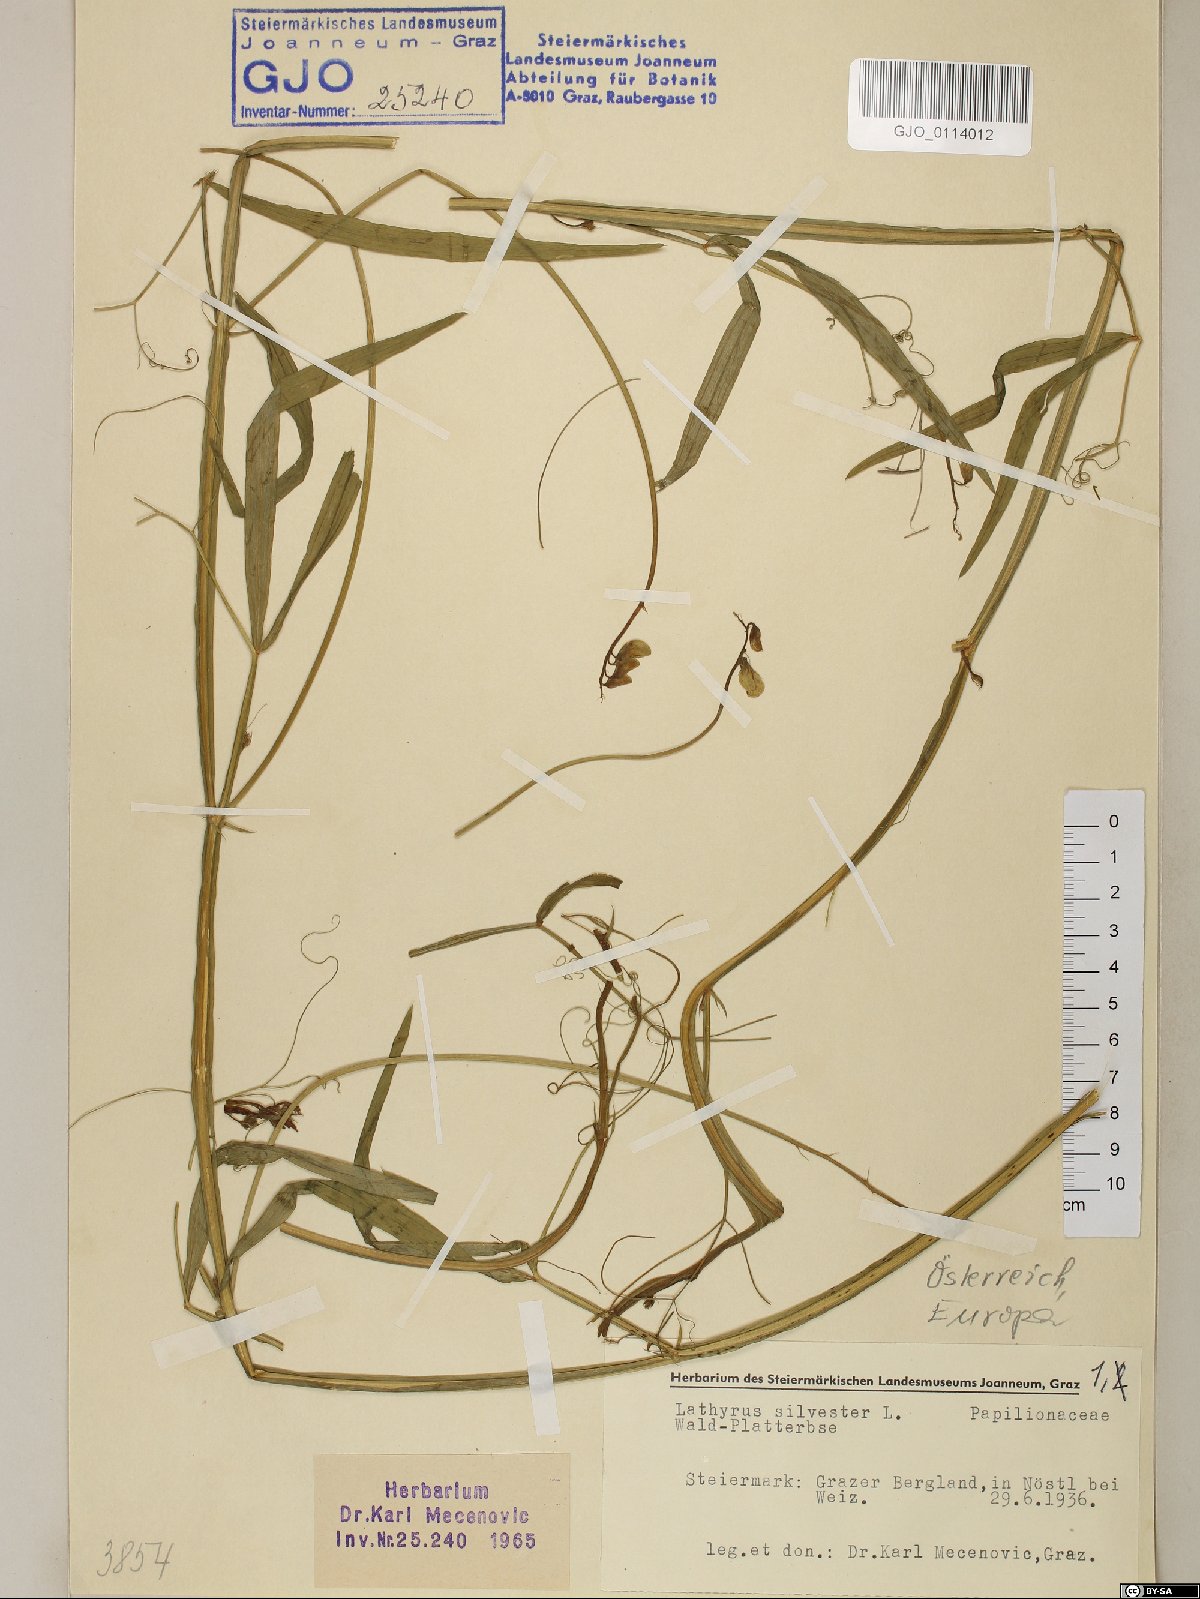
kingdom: Plantae
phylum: Tracheophyta
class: Magnoliopsida
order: Fabales
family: Fabaceae
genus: Lathyrus
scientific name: Lathyrus sylvestris
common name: Flat pea
